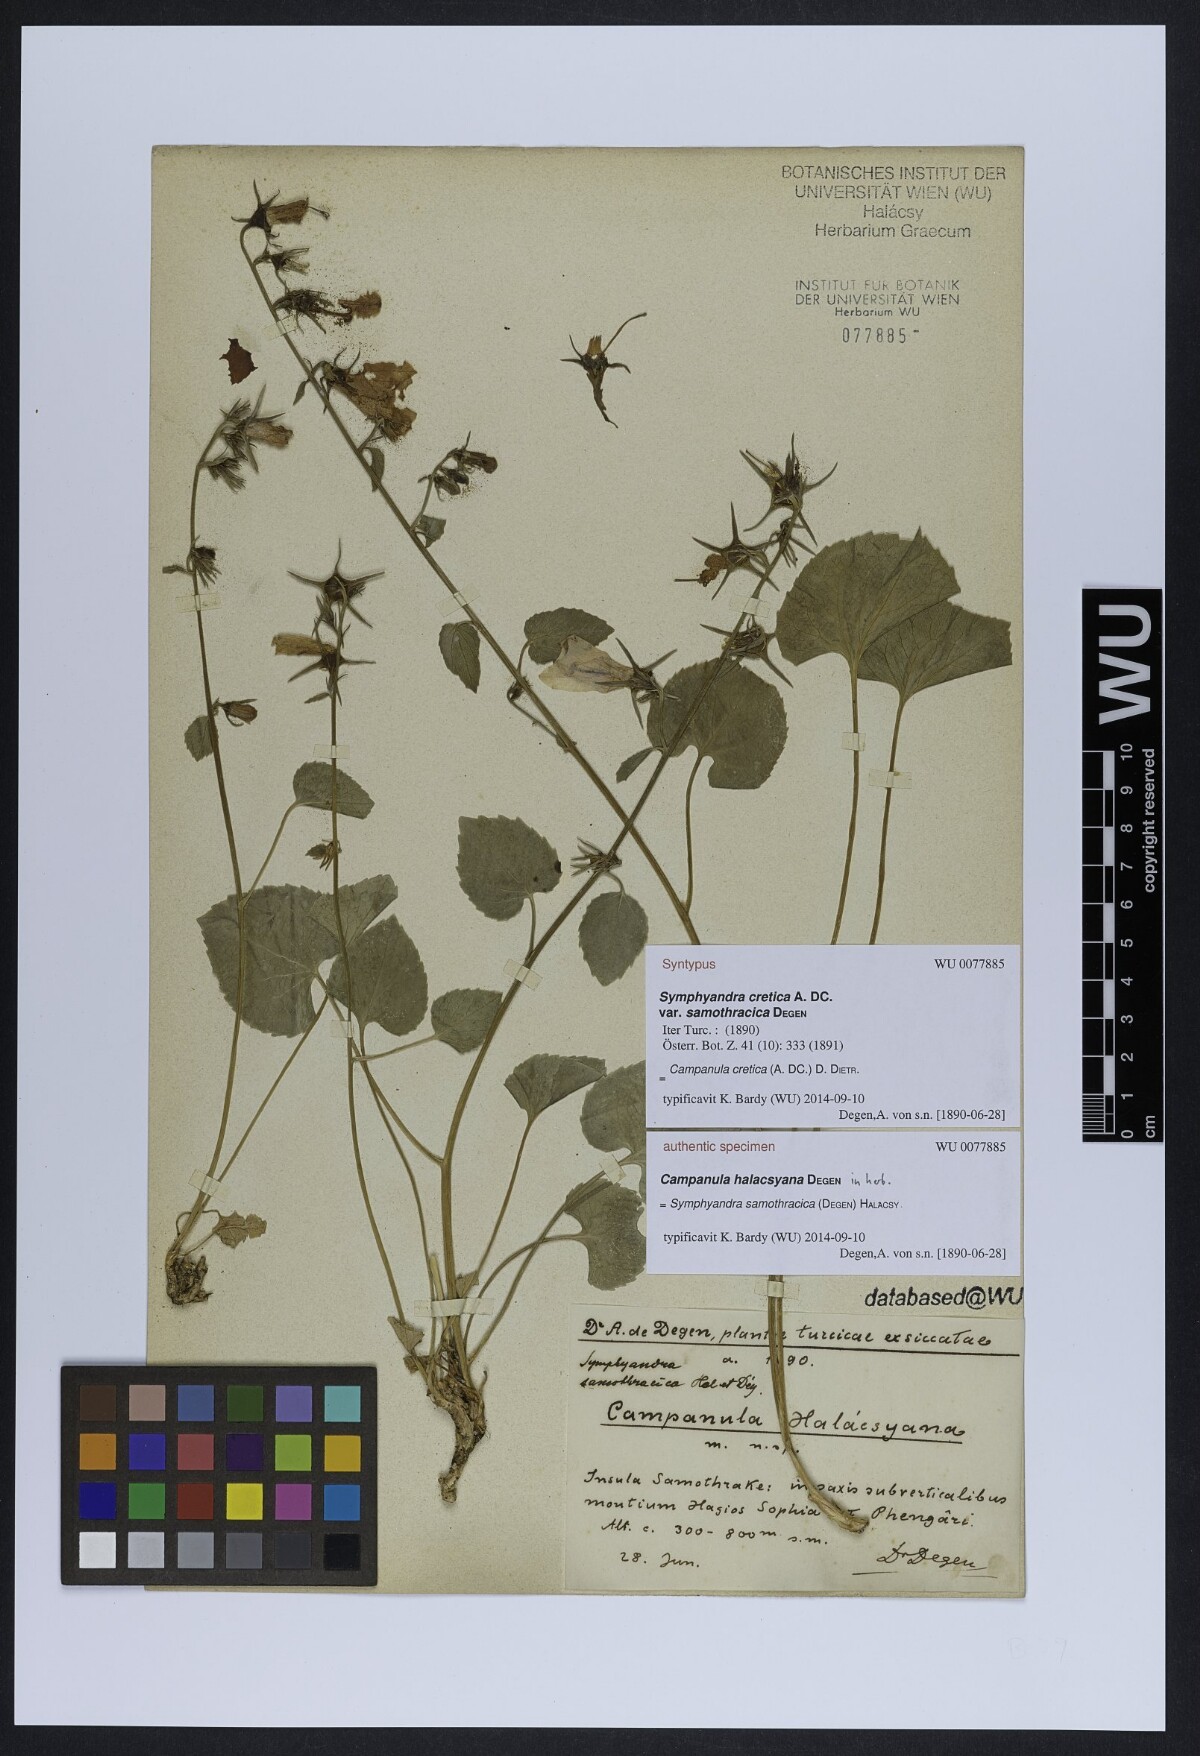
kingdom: Plantae
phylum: Tracheophyta
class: Magnoliopsida
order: Asterales
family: Campanulaceae
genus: Campanula
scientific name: Campanula samothracica
